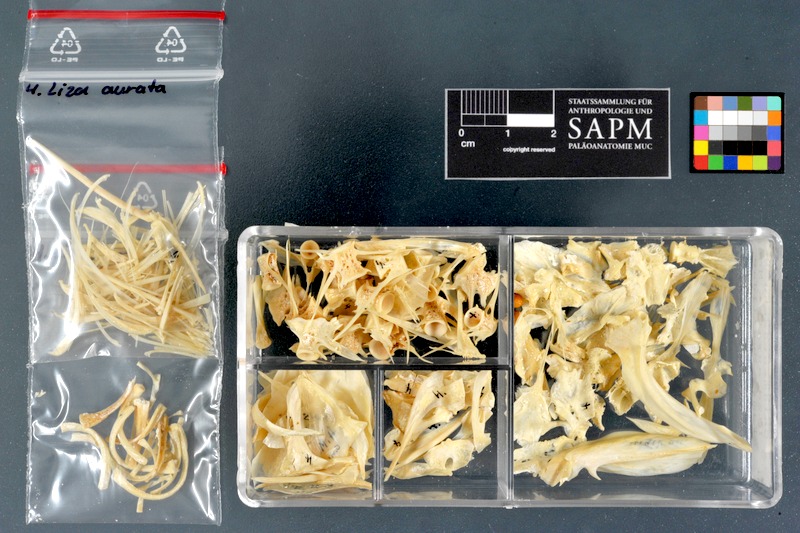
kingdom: Animalia
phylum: Chordata
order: Mugiliformes
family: Mugilidae
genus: Chelon
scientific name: Chelon auratus
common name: Golden grey mullet
